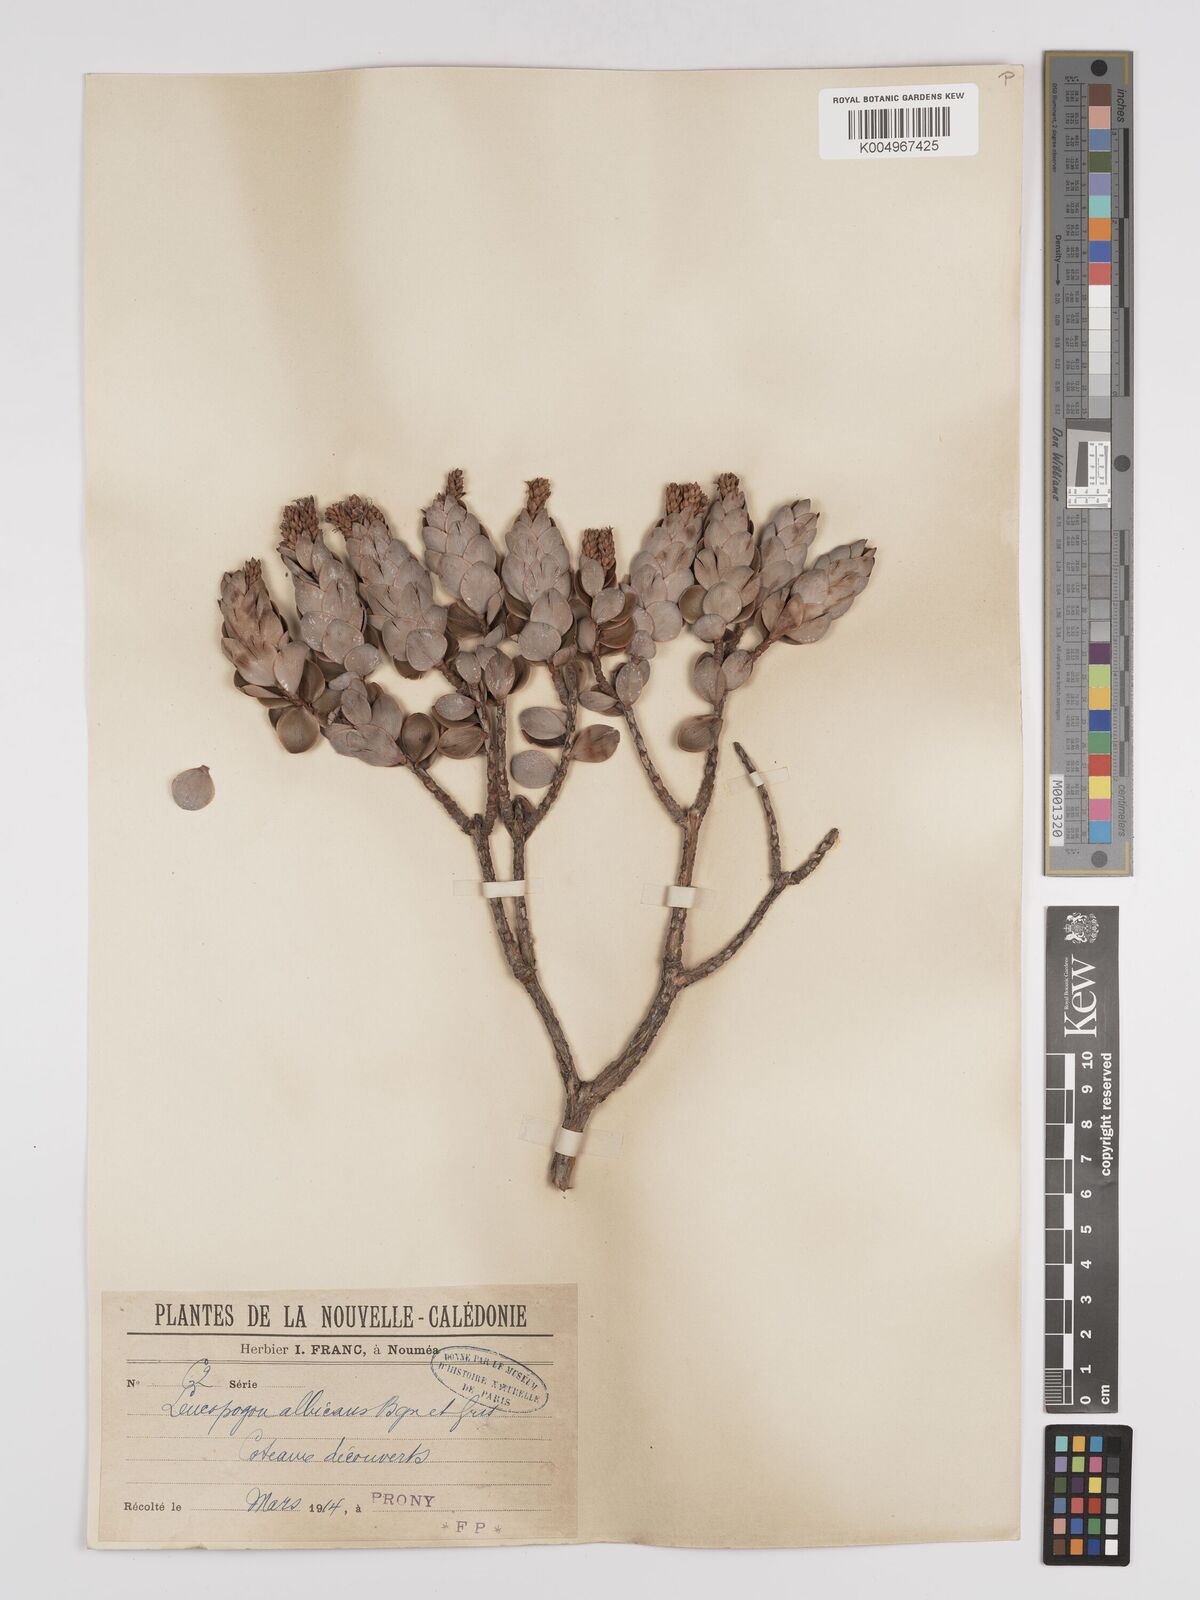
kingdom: Plantae
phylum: Tracheophyta
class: Magnoliopsida
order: Ericales
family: Ericaceae
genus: Cyathopsis
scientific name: Cyathopsis albicans
